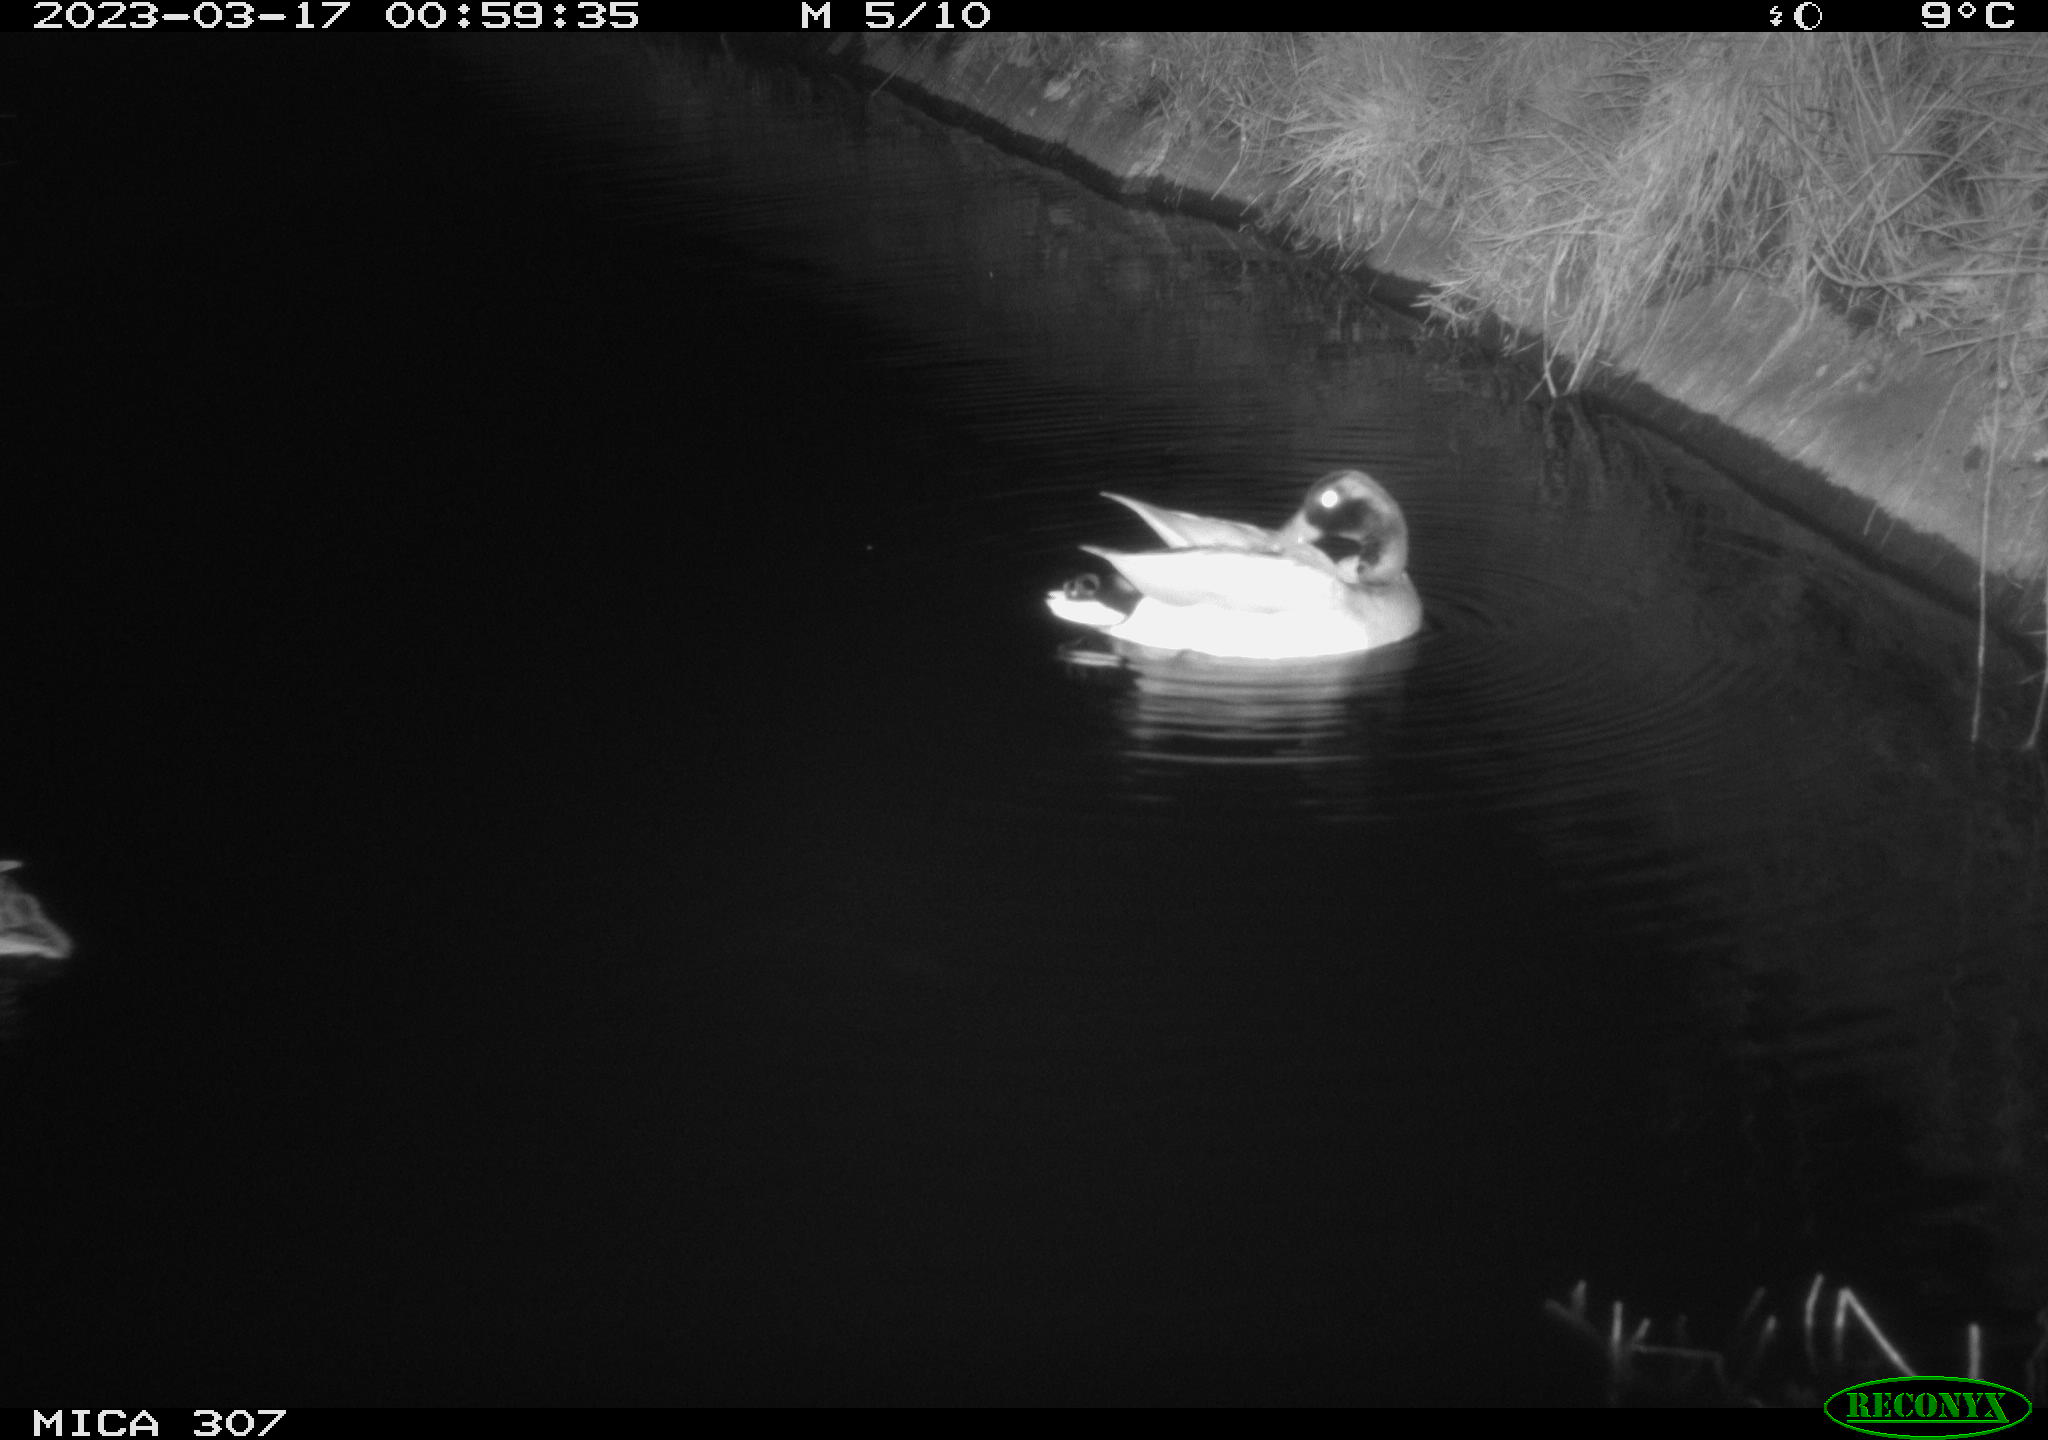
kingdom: Animalia
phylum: Chordata
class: Aves
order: Anseriformes
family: Anatidae
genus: Anas
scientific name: Anas
